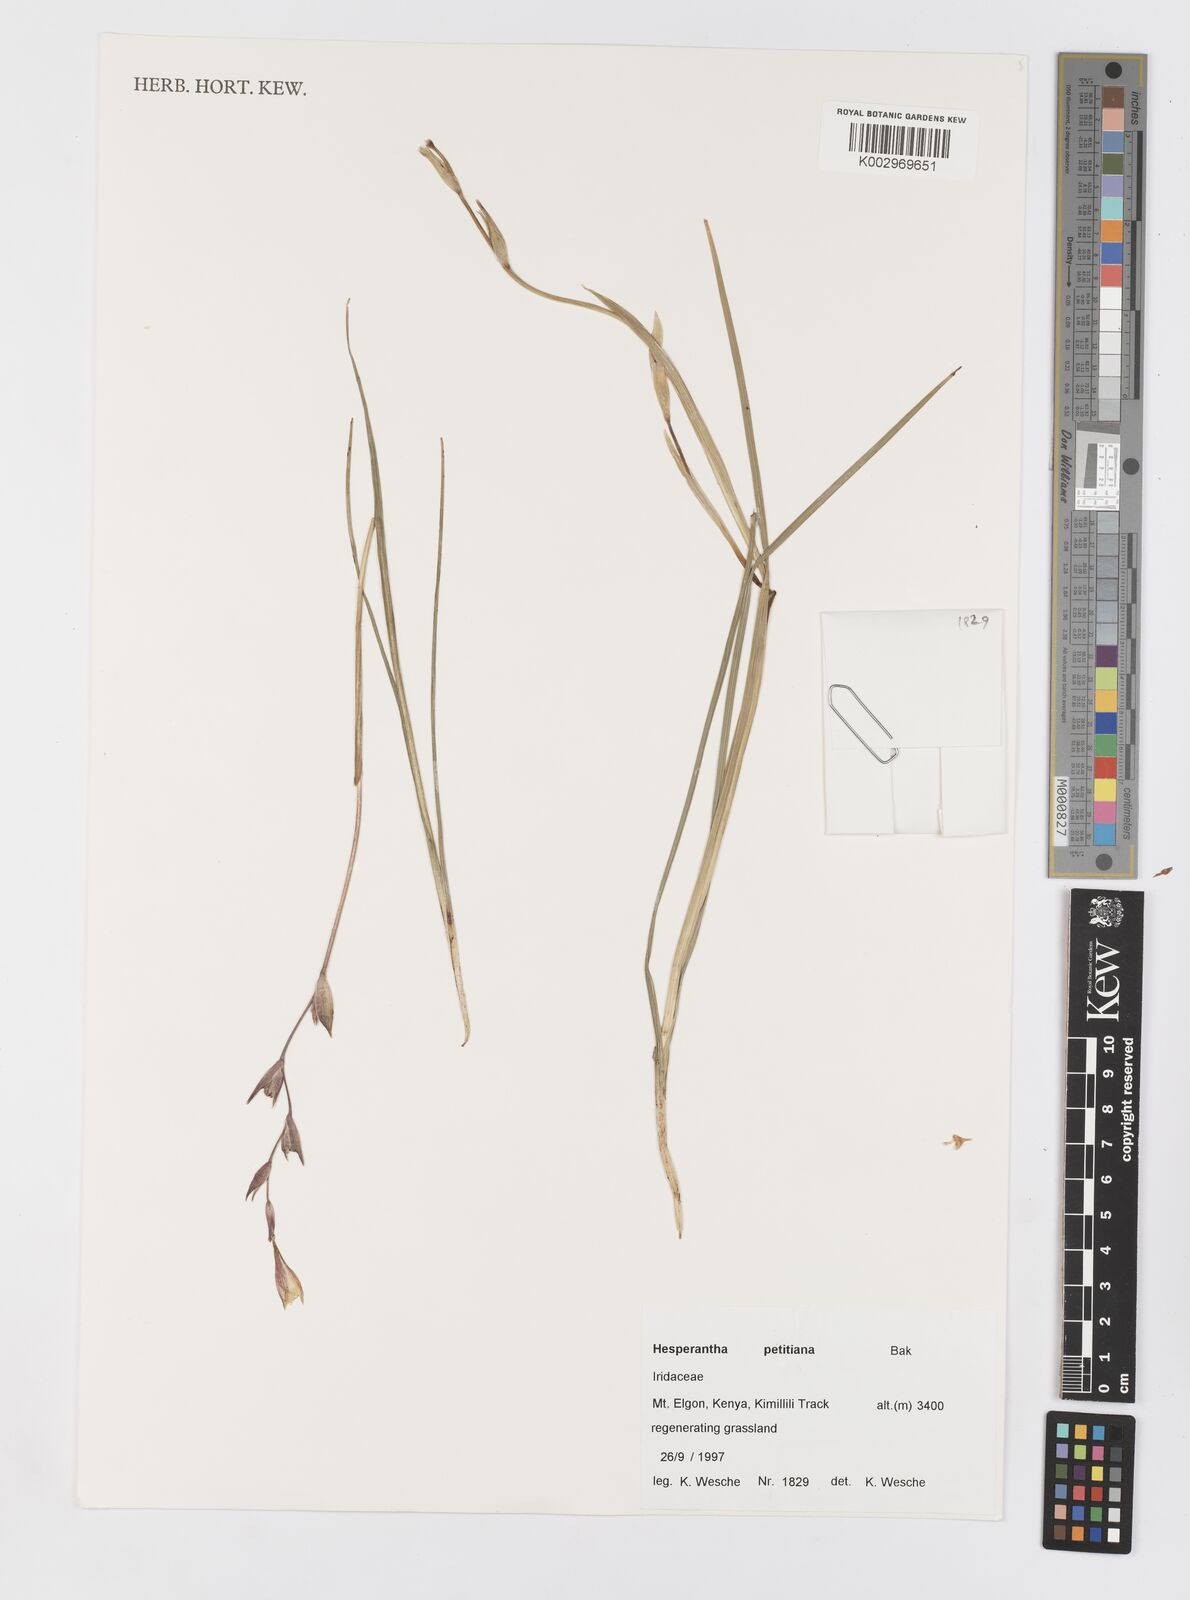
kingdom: Plantae
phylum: Tracheophyta
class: Liliopsida
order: Asparagales
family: Iridaceae
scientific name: Iridaceae
